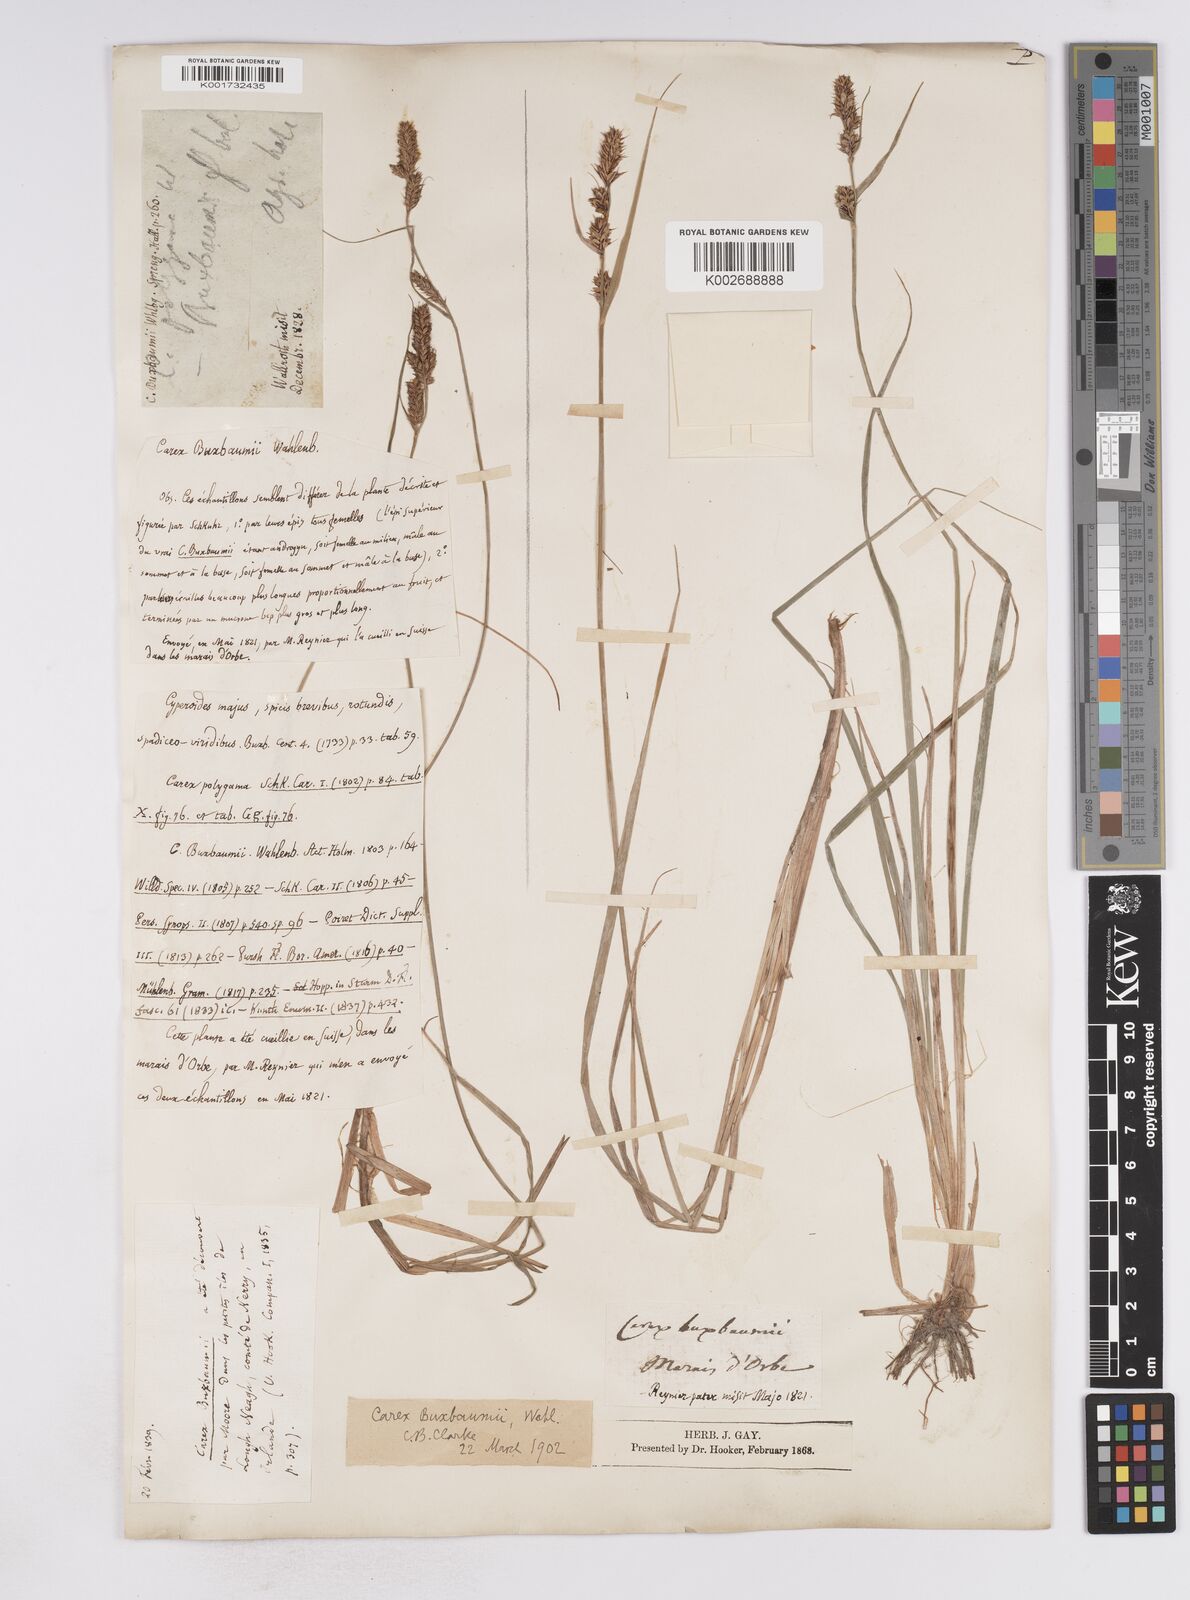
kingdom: Plantae
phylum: Tracheophyta
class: Liliopsida
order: Poales
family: Cyperaceae
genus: Carex
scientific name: Carex buxbaumii
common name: Club sedge
